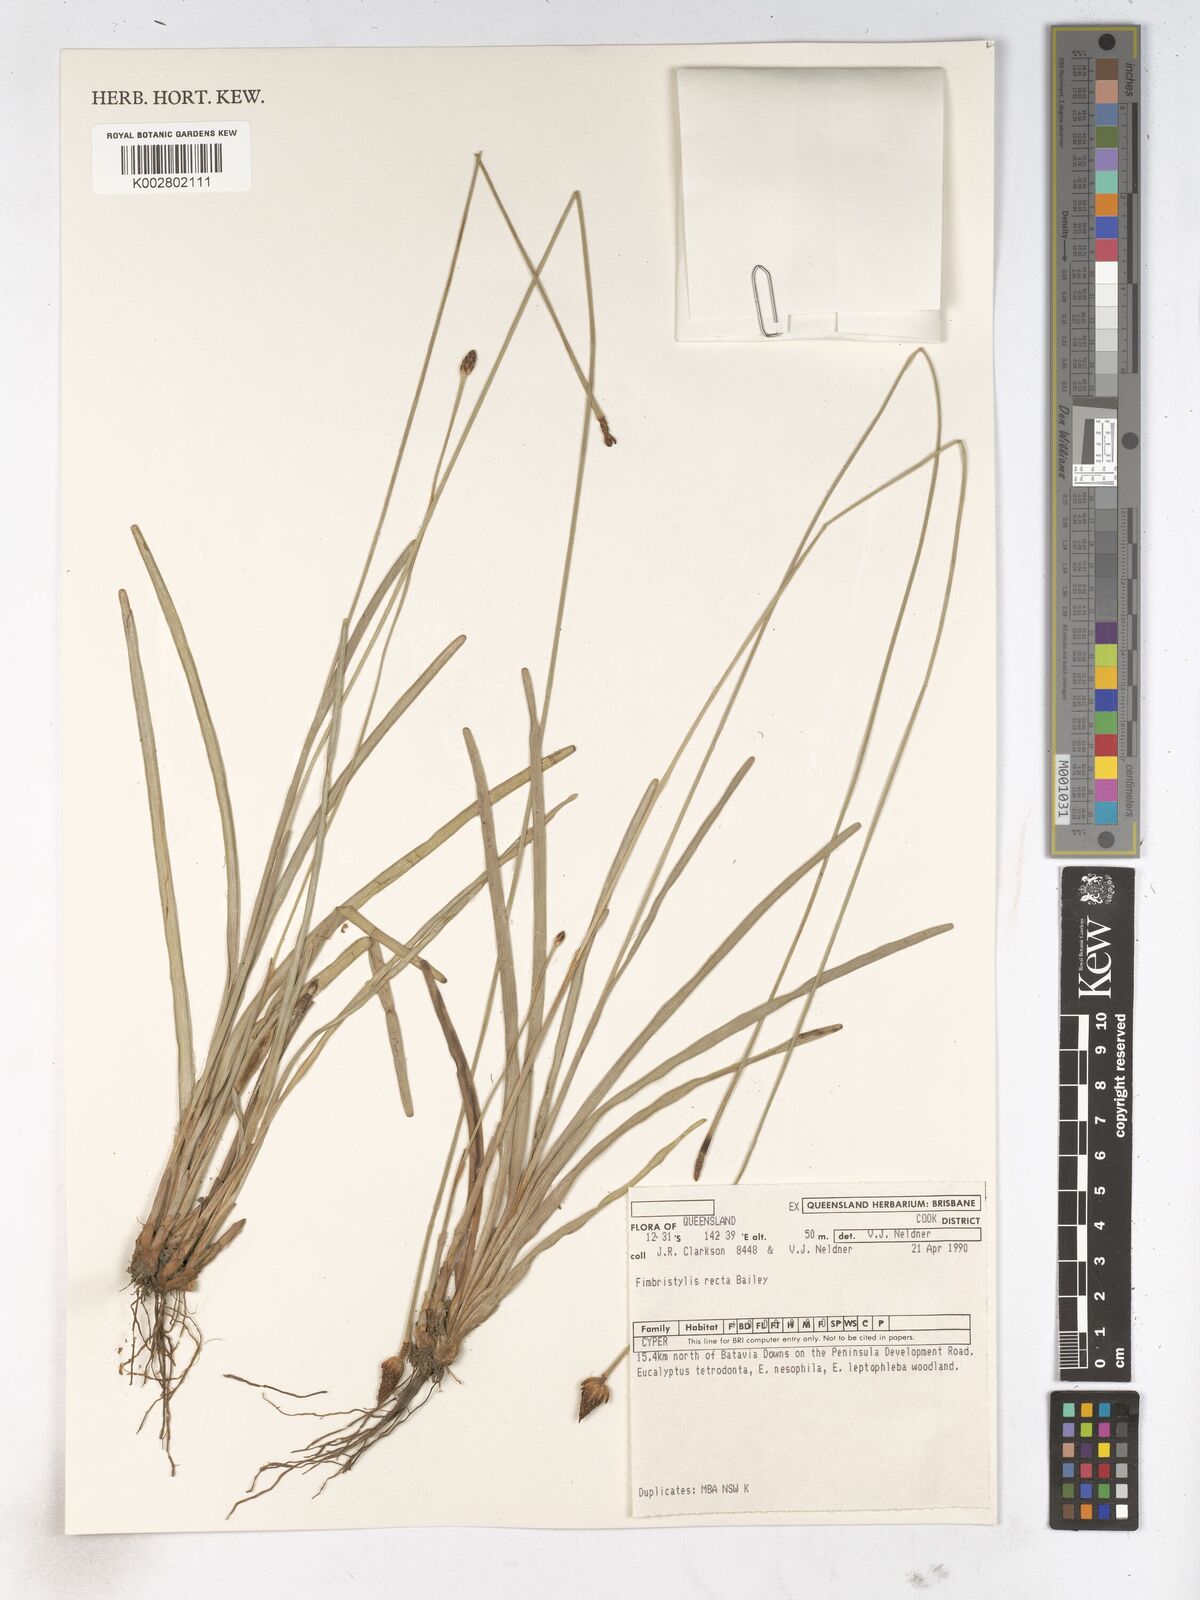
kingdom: Plantae
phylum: Tracheophyta
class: Liliopsida
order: Poales
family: Cyperaceae
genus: Fimbristylis
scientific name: Fimbristylis recta
